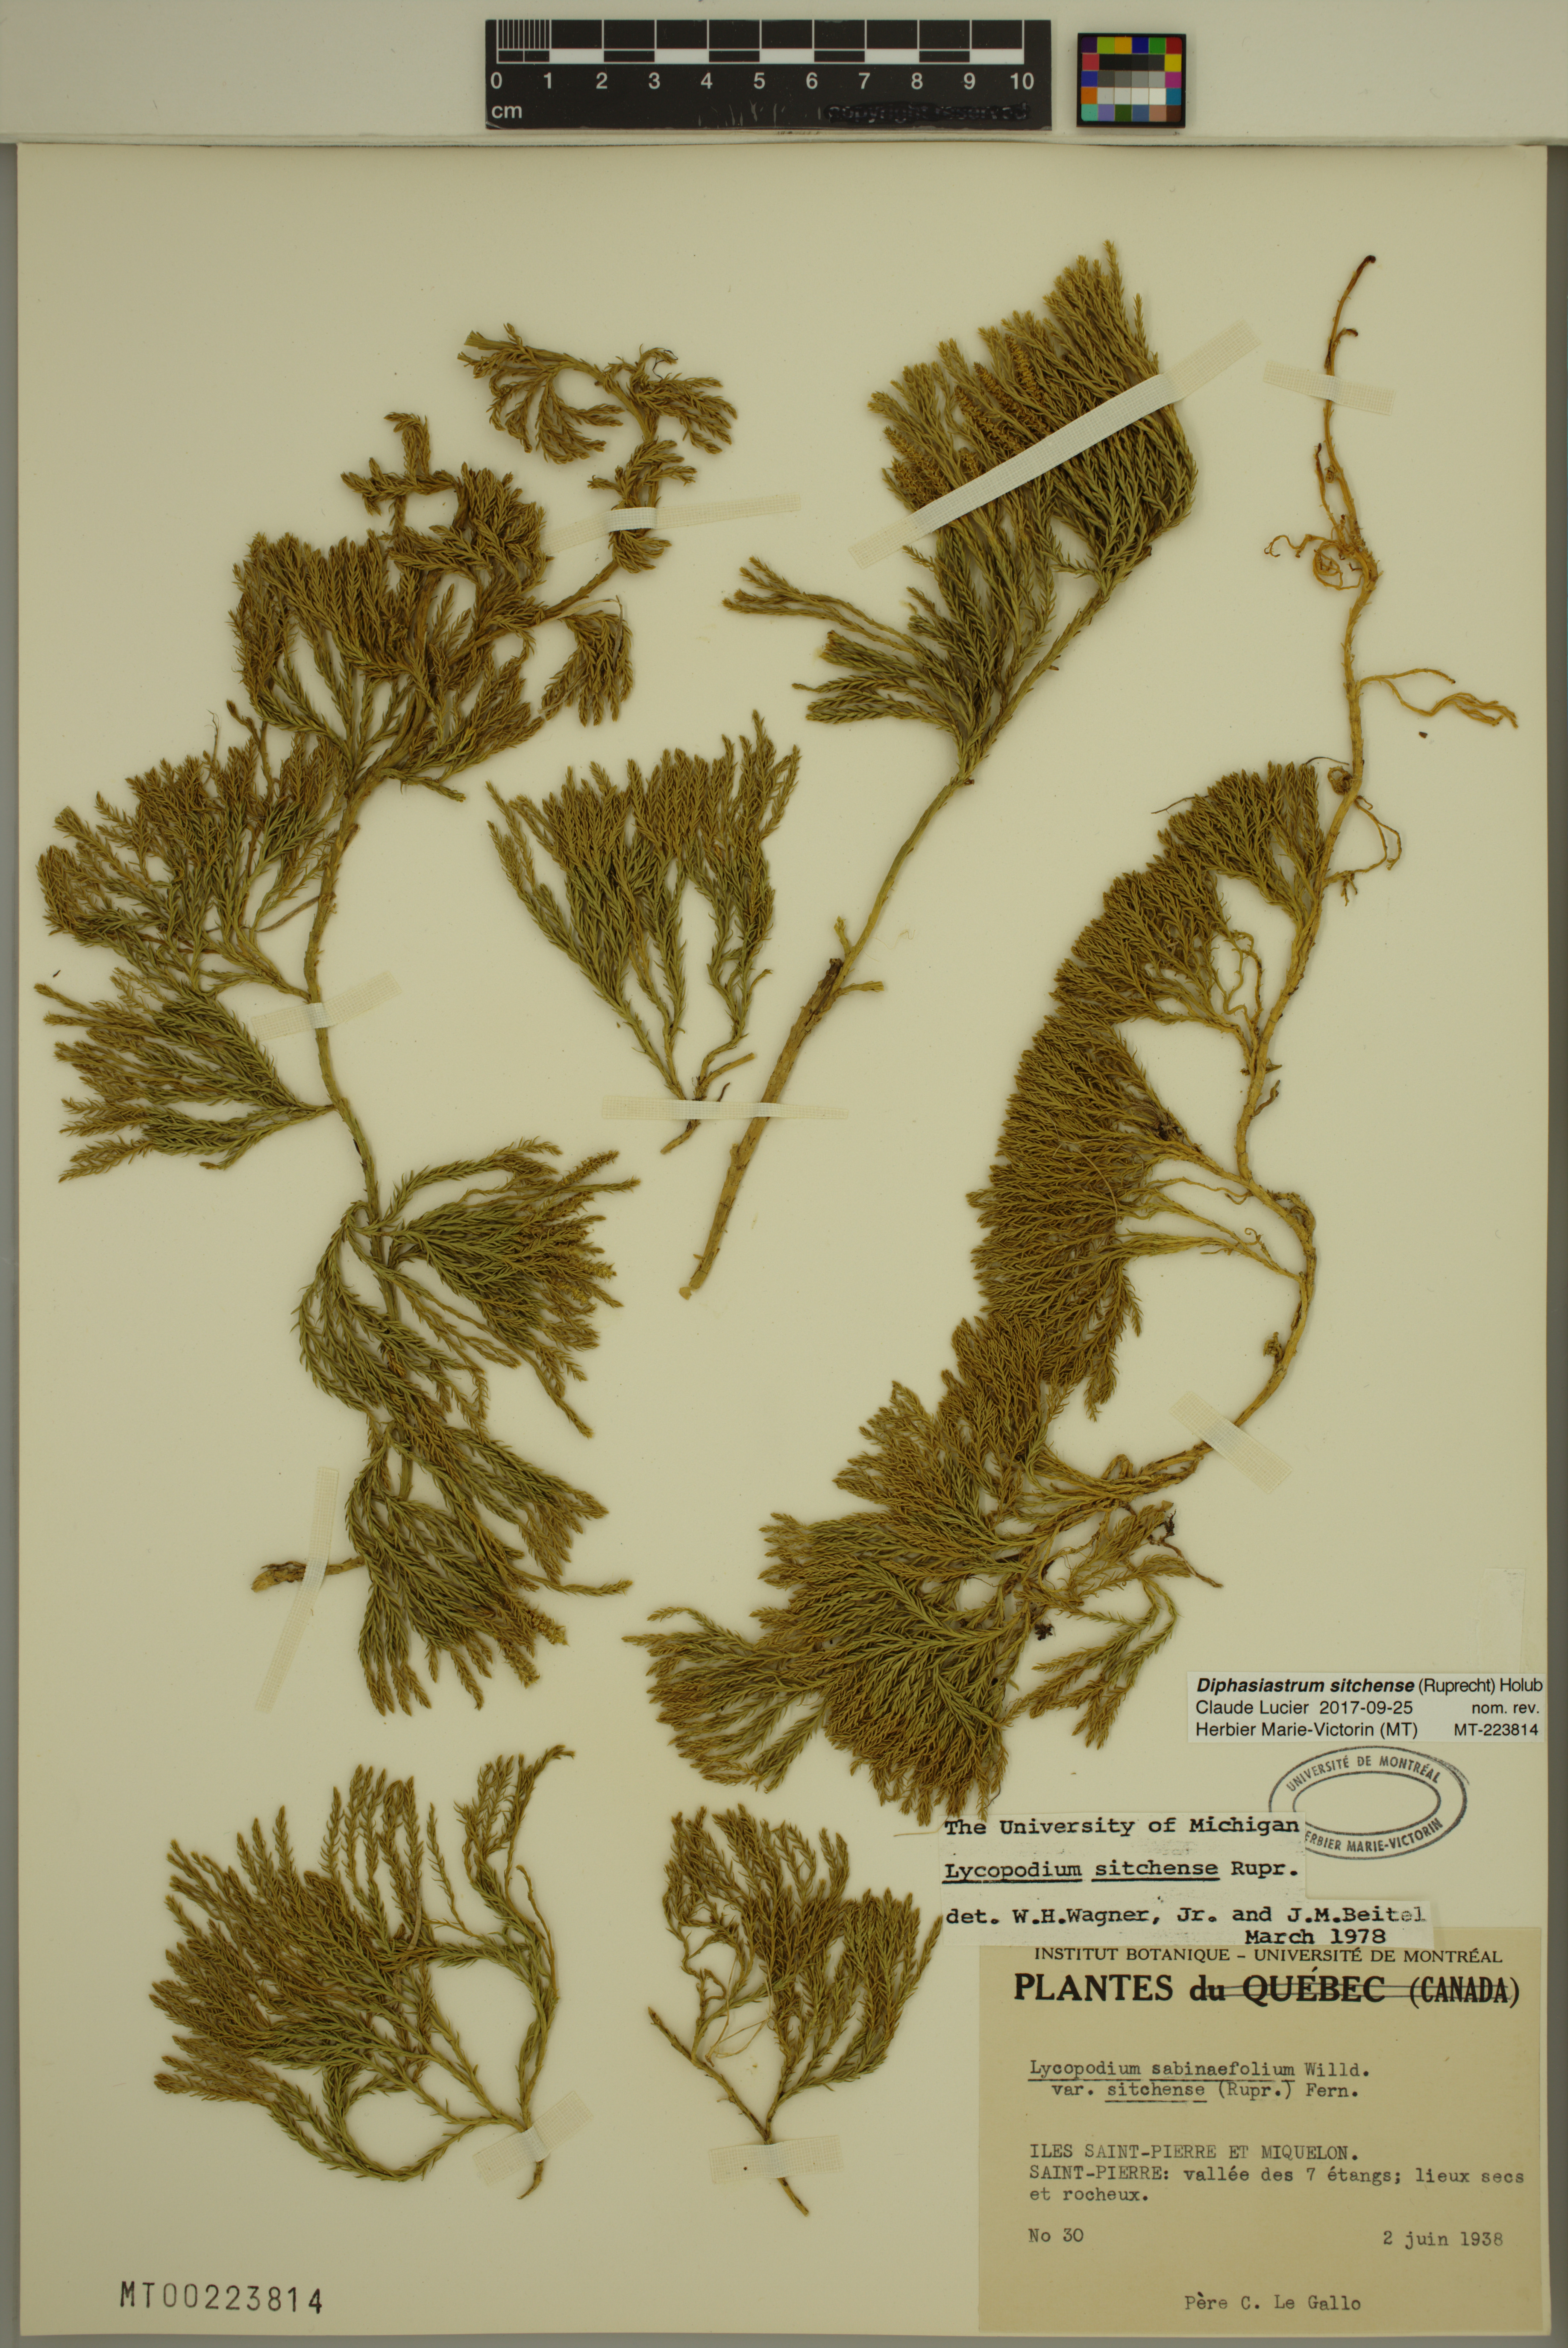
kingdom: Plantae
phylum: Tracheophyta
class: Lycopodiopsida
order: Lycopodiales
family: Lycopodiaceae
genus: Diphasiastrum
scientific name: Diphasiastrum sitchense
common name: Alaska clubmoss
